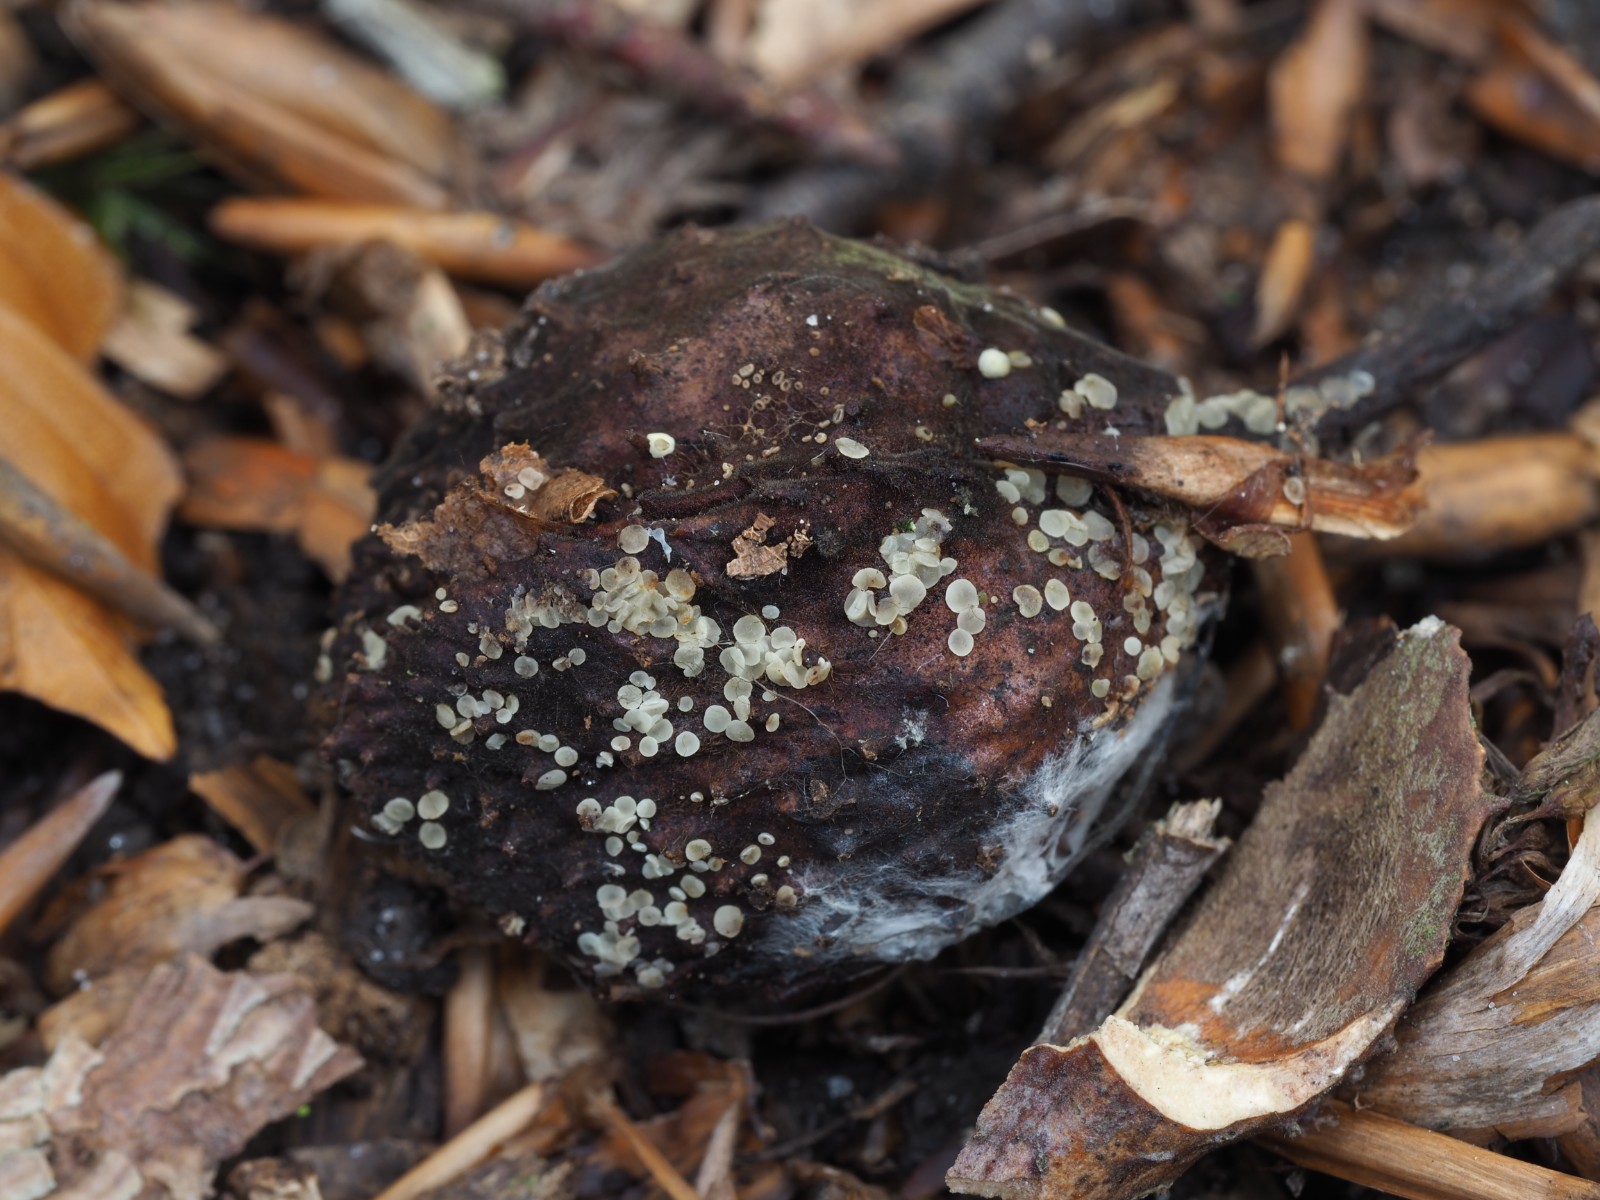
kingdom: Fungi
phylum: Ascomycota
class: Leotiomycetes
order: Helotiales
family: Pezizellaceae
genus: Calycina
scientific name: Calycina
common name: gulskive
